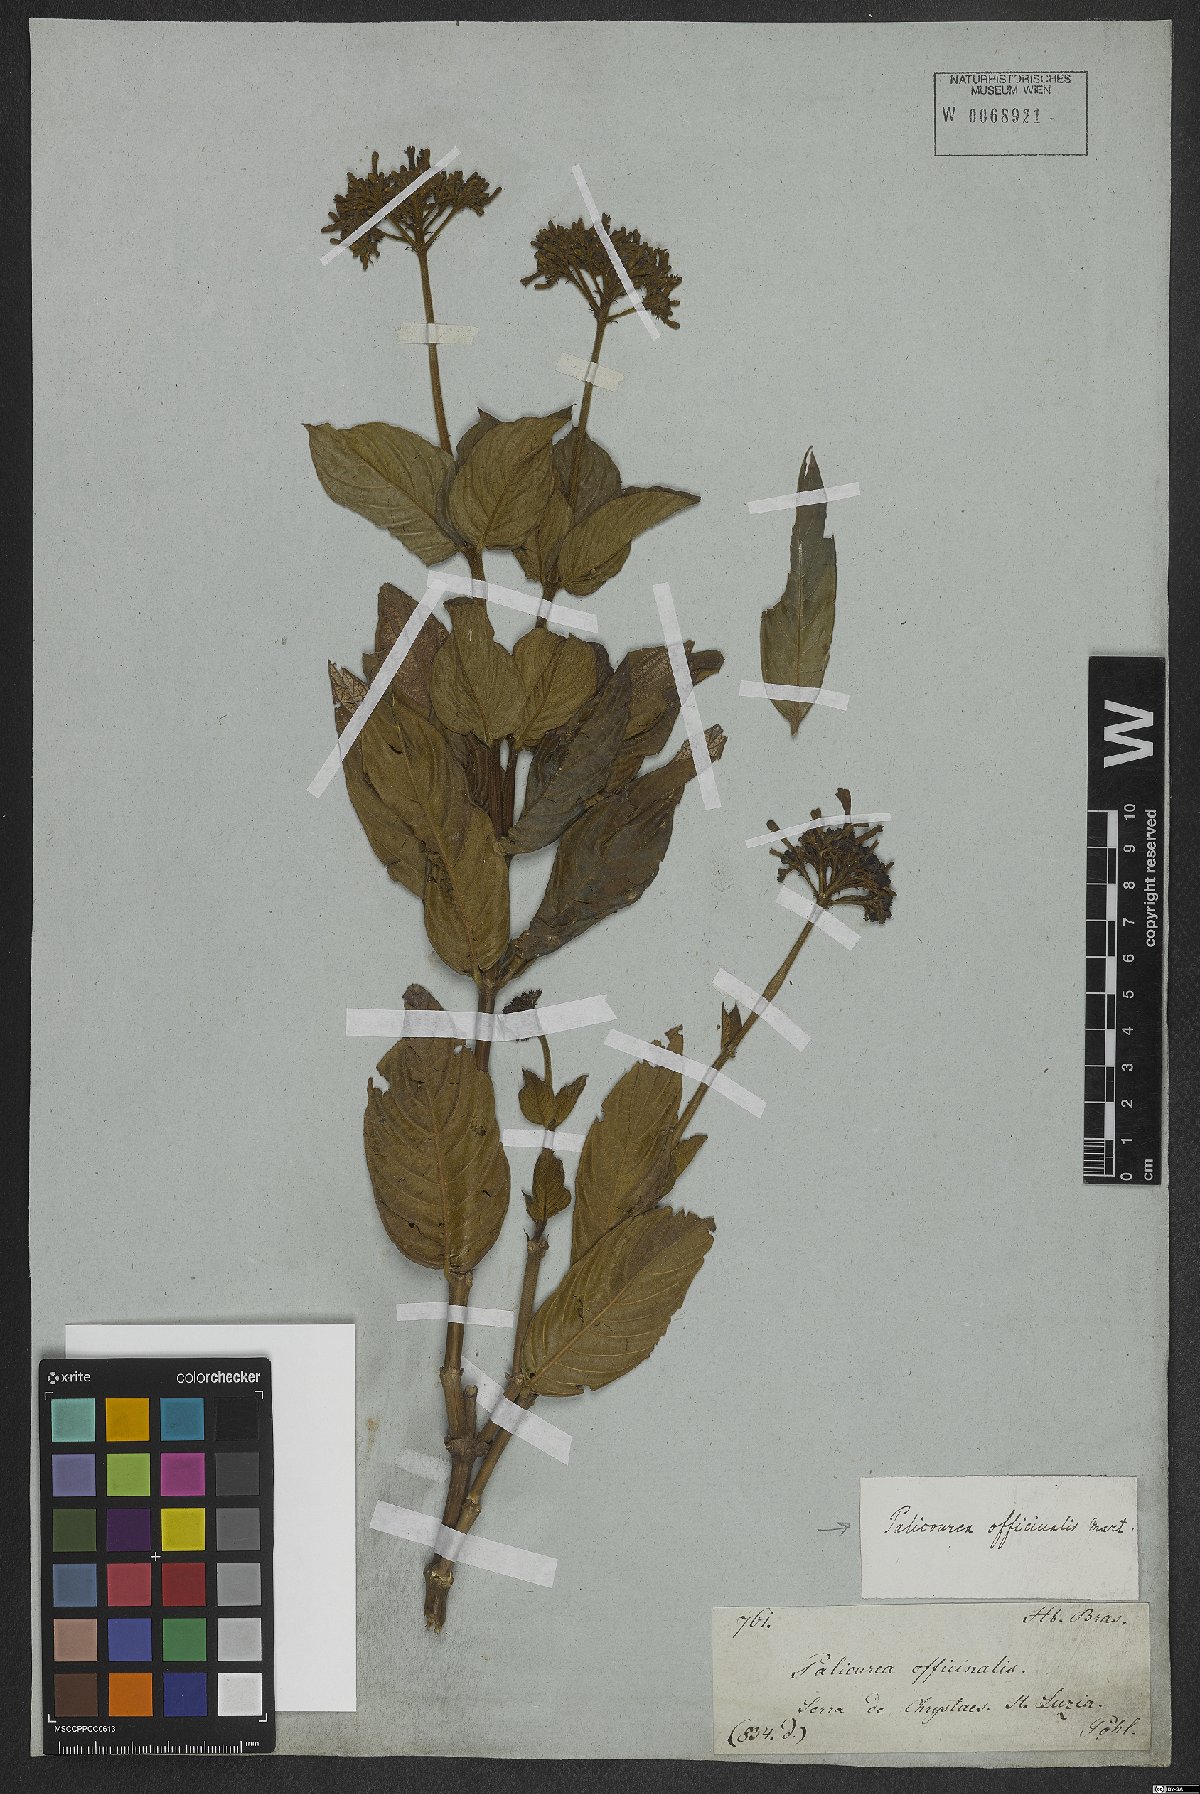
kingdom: Plantae
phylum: Tracheophyta
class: Magnoliopsida
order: Gentianales
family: Rubiaceae
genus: Palicourea
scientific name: Palicourea officinalis
